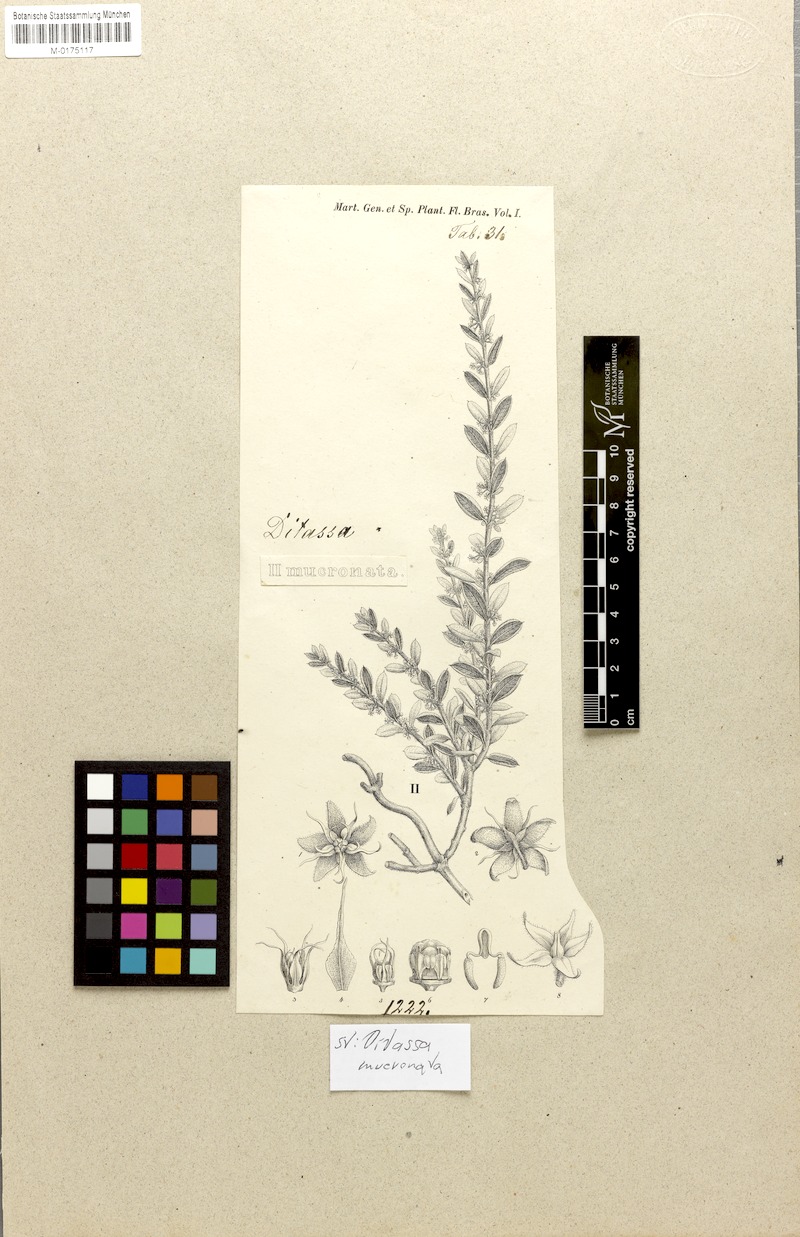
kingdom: Plantae
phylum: Tracheophyta
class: Magnoliopsida
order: Gentianales
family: Apocynaceae
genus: Ditassa
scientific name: Ditassa mucronata
